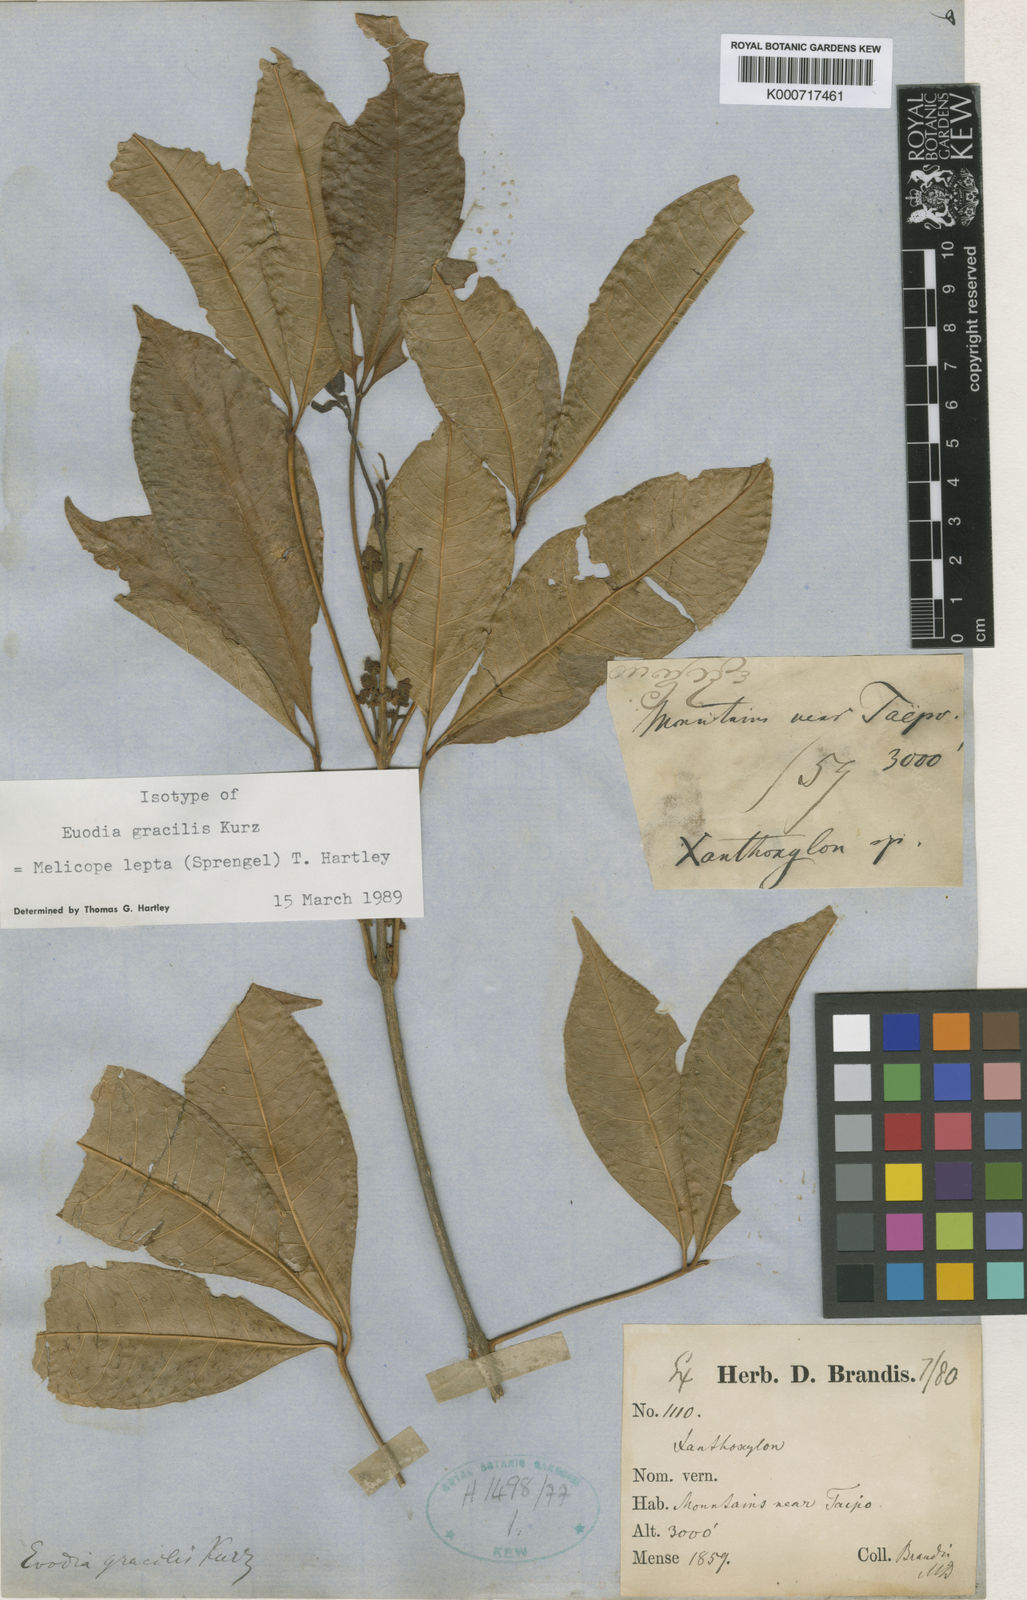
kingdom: Plantae
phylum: Tracheophyta
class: Magnoliopsida
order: Sapindales
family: Rutaceae
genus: Melicope
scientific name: Melicope pteleifolia
